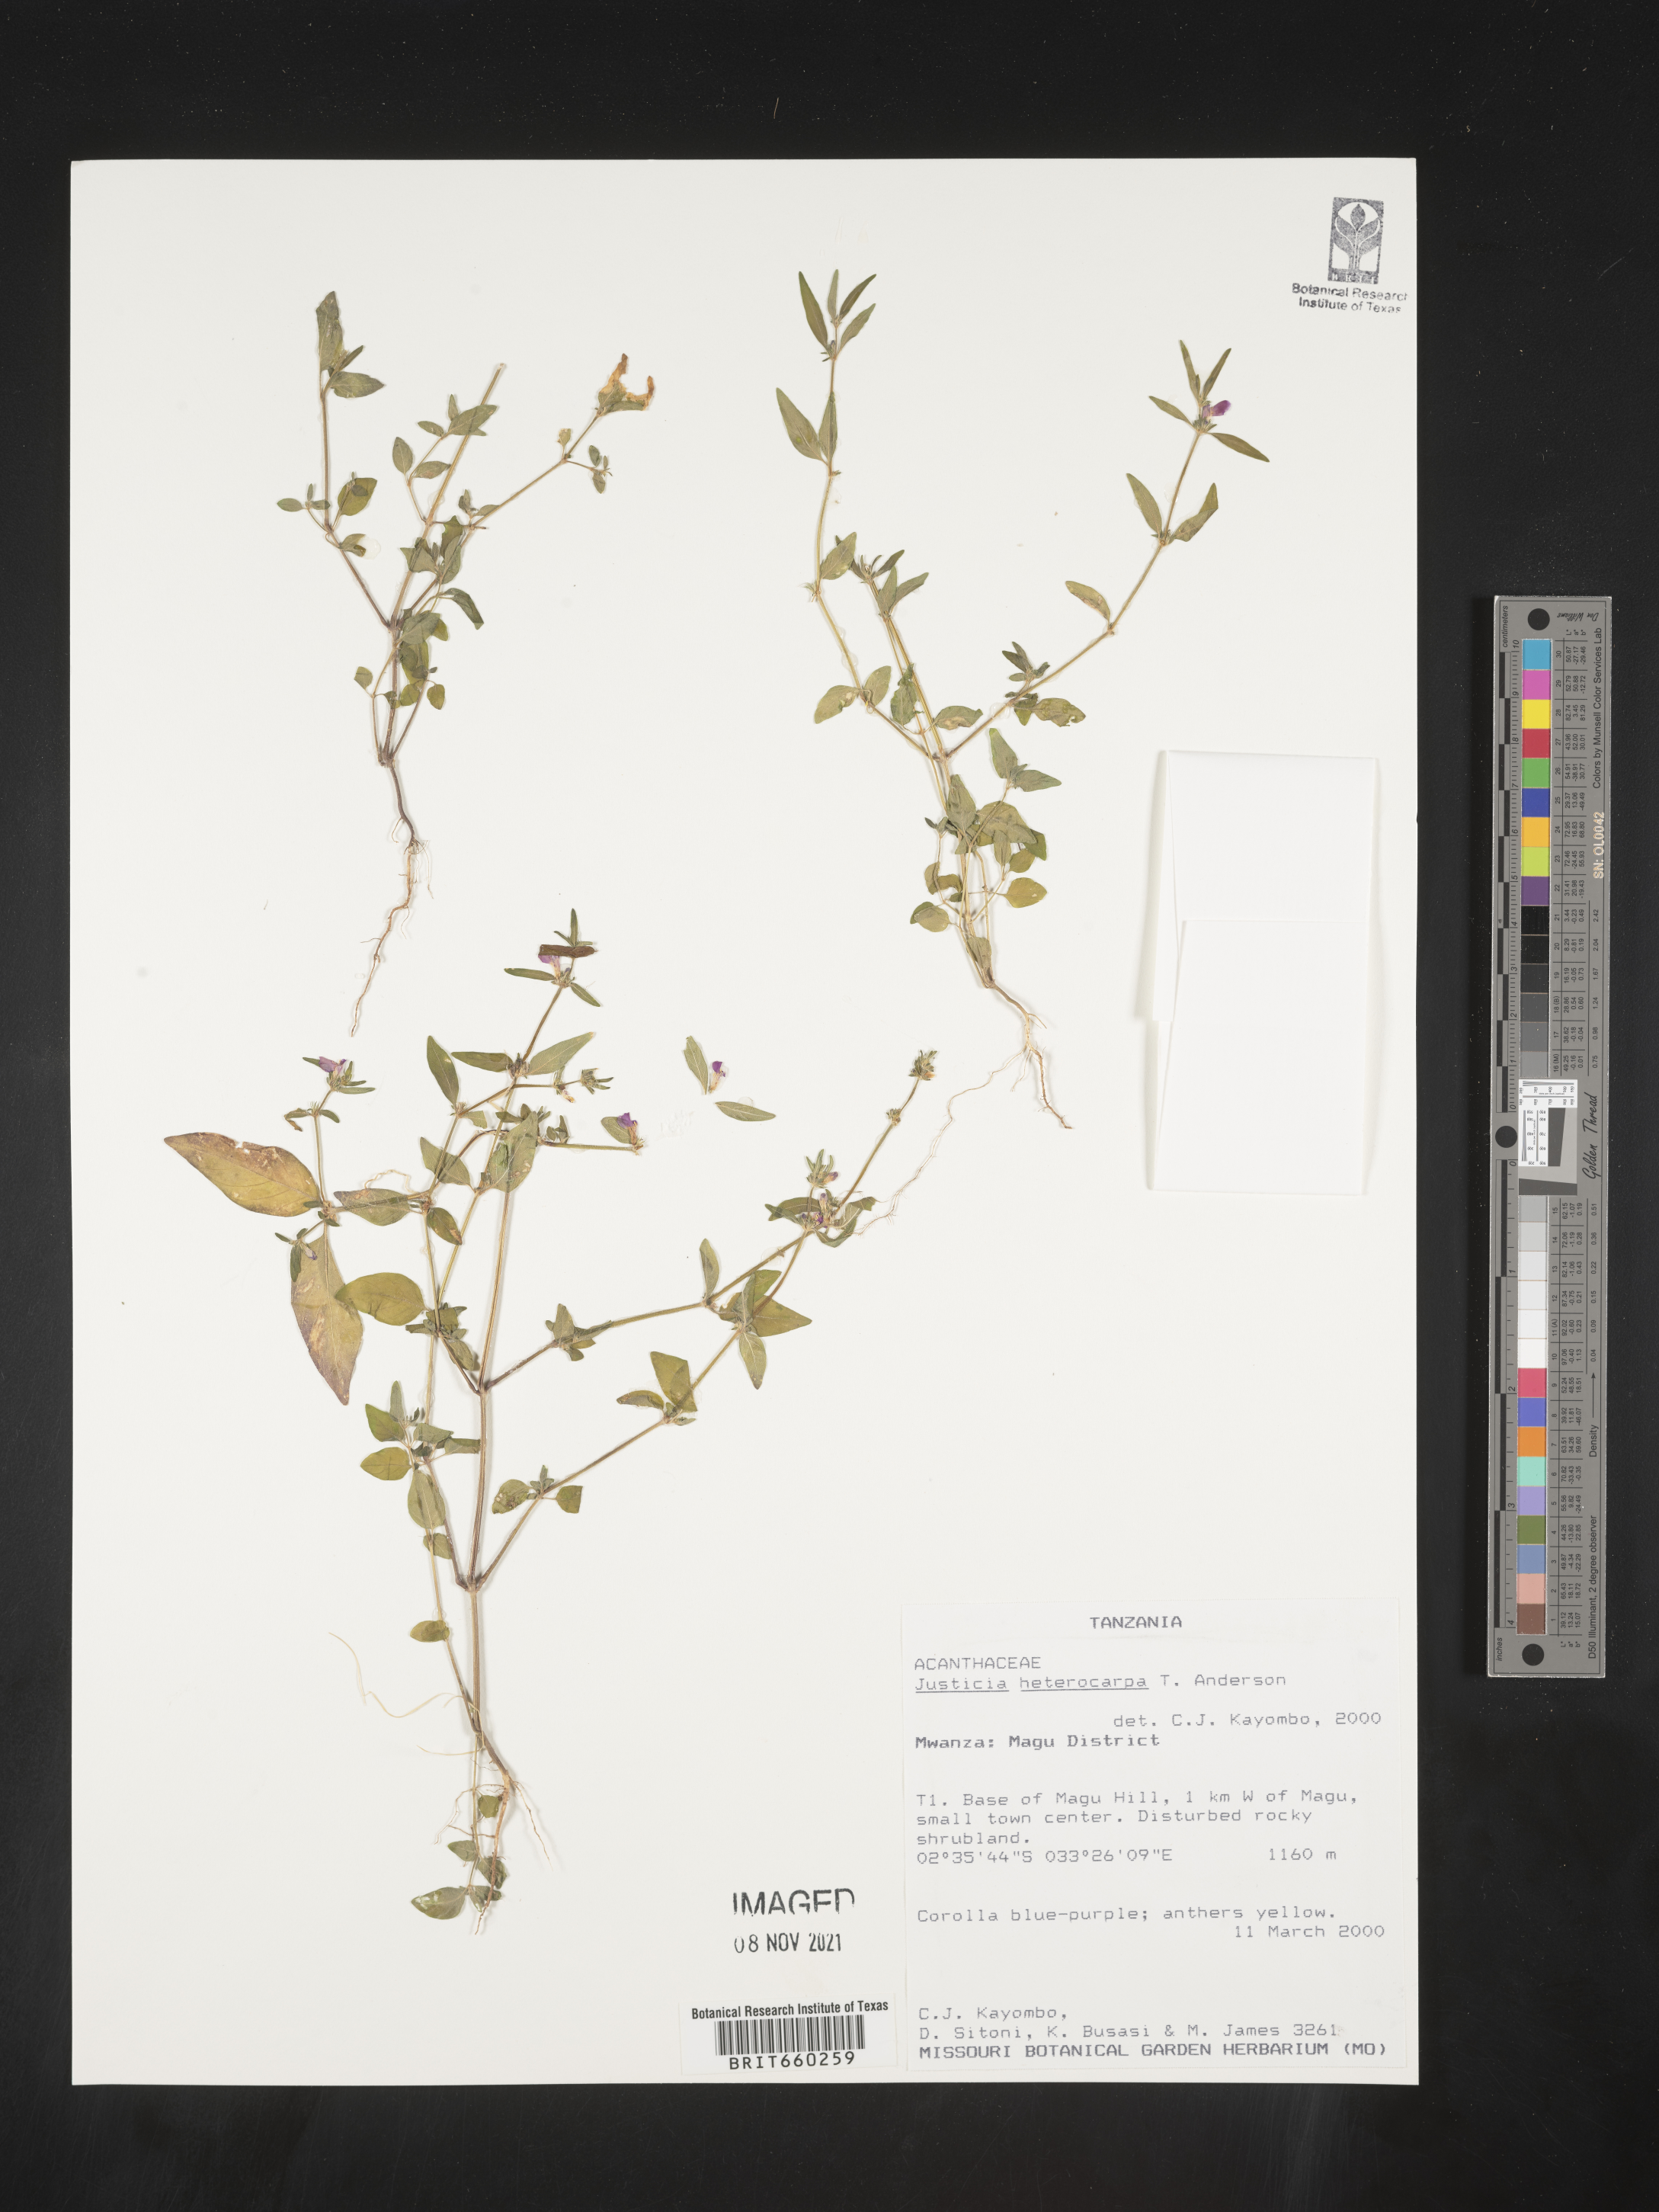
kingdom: Plantae
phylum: Tracheophyta
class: Magnoliopsida
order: Lamiales
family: Acanthaceae
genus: Justicia
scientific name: Justicia
